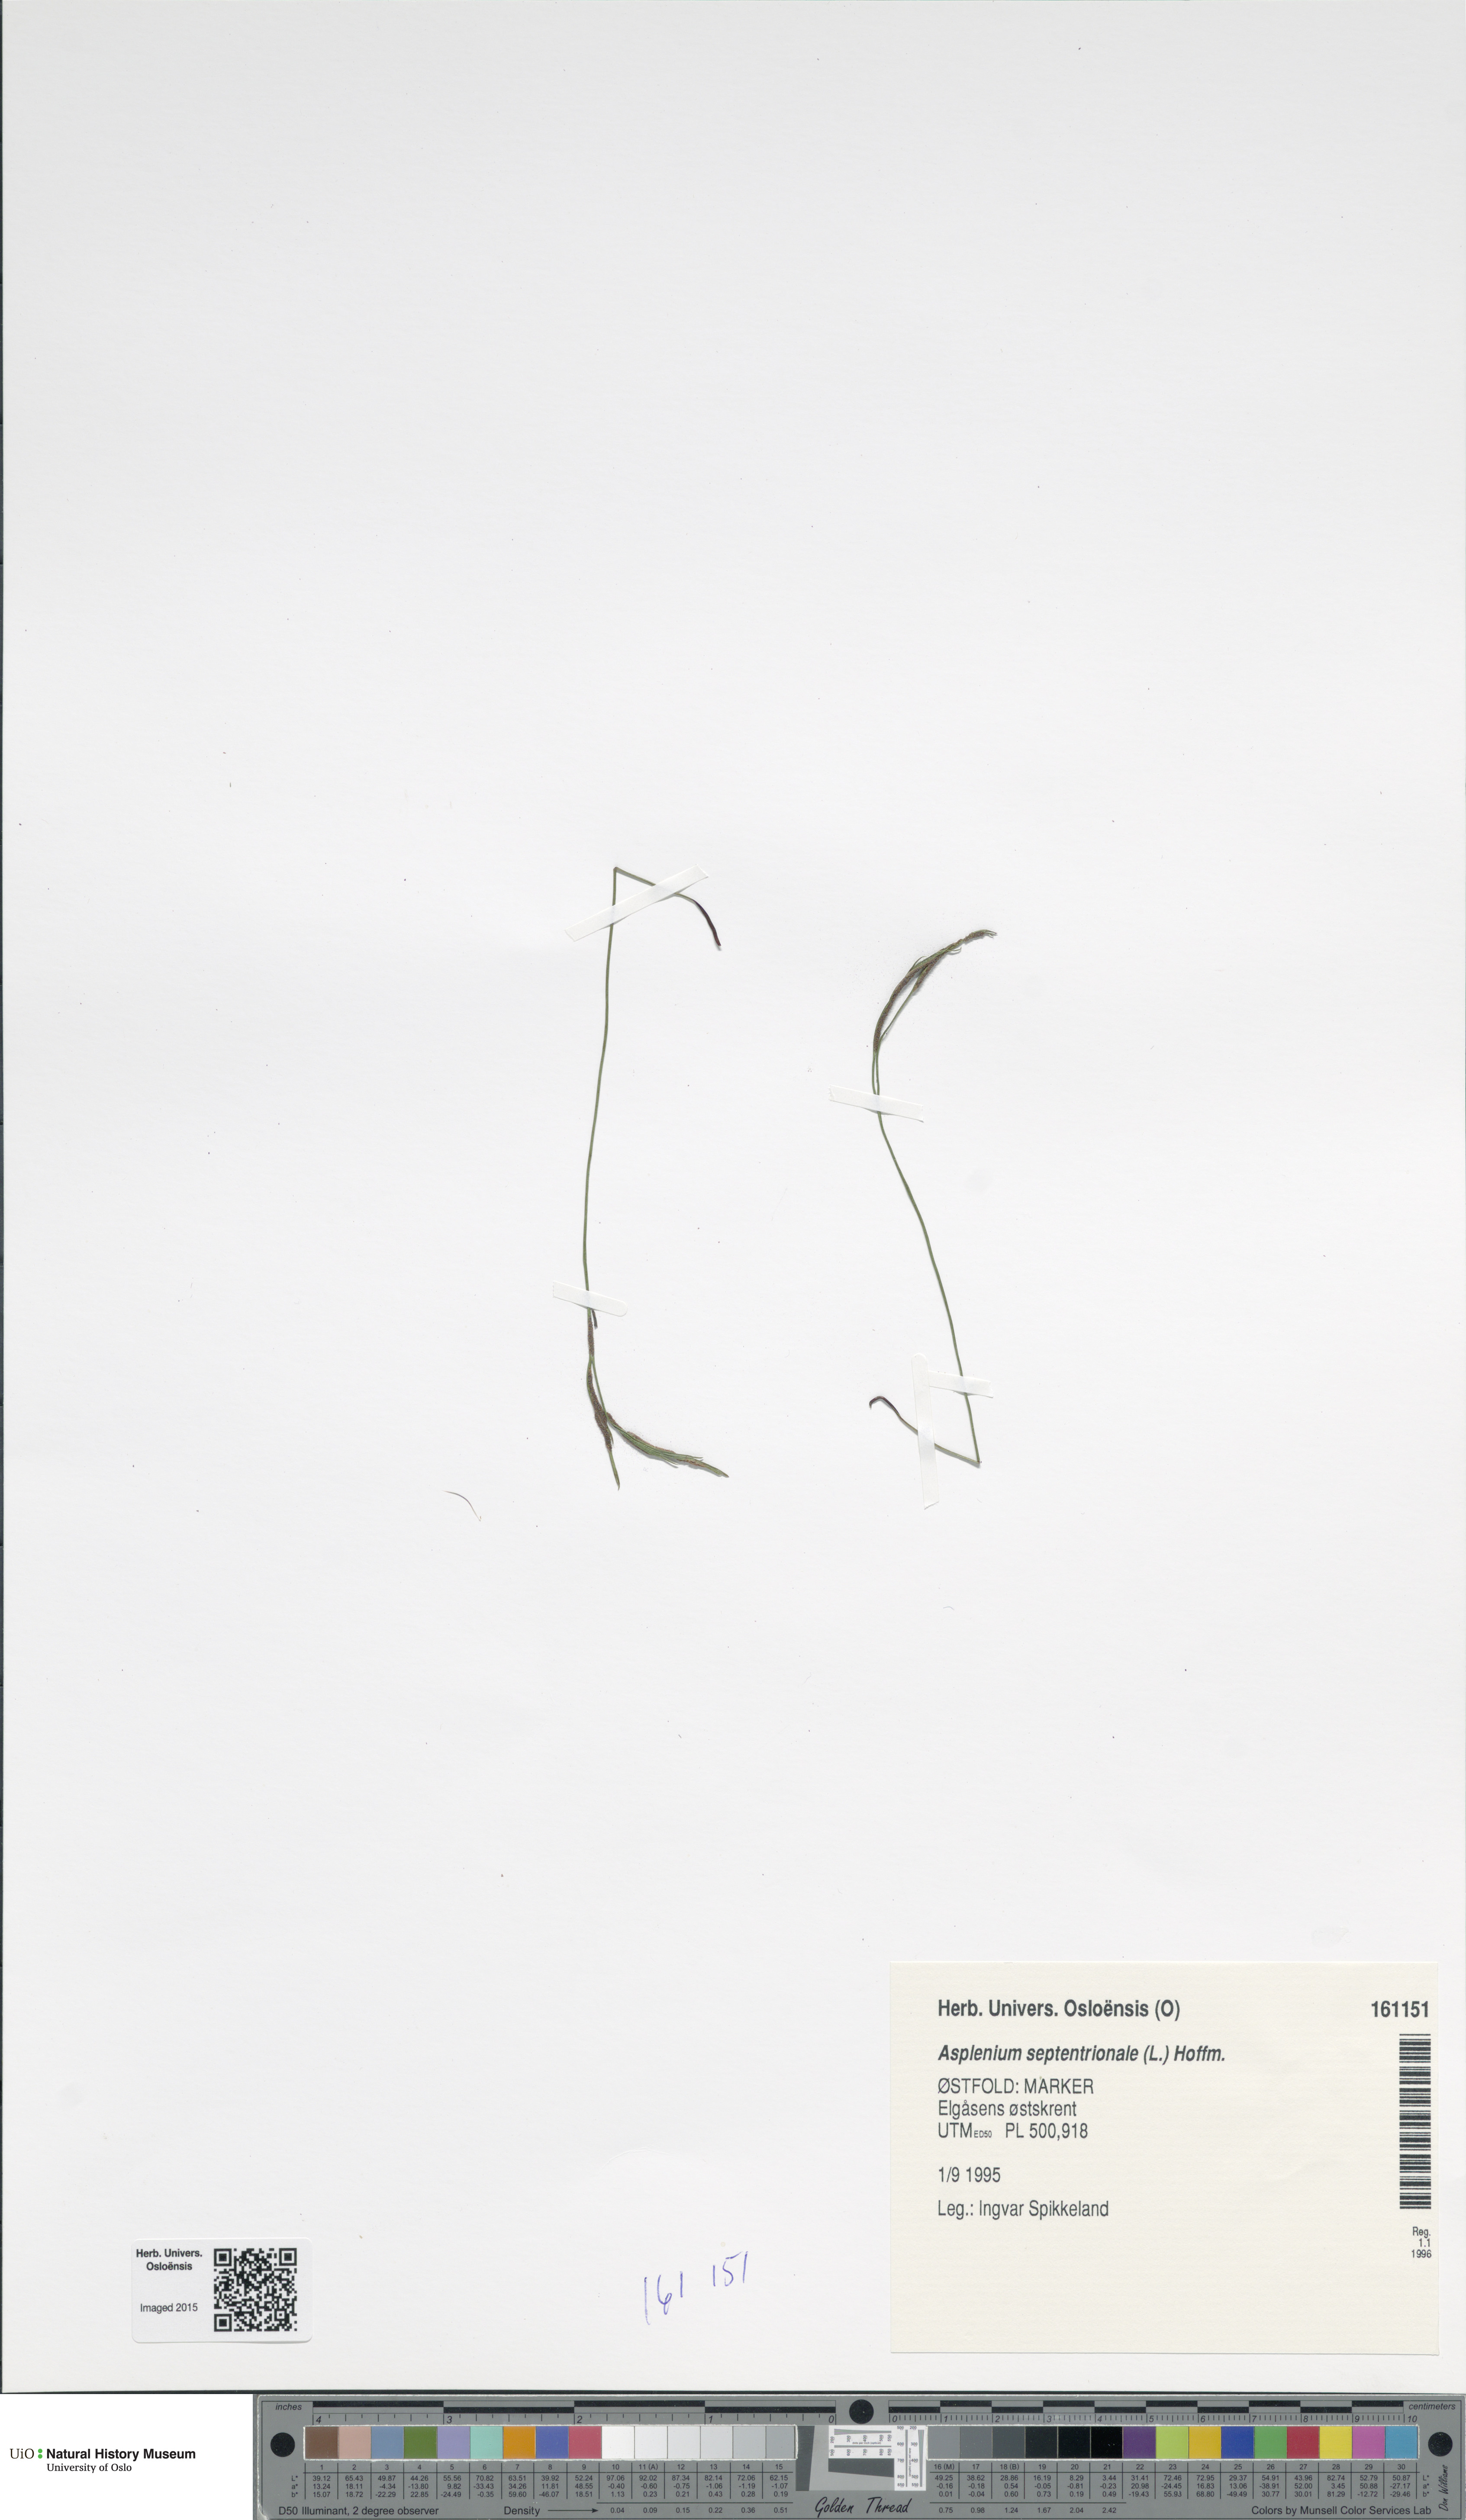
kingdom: Plantae
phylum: Tracheophyta
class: Polypodiopsida
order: Polypodiales
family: Aspleniaceae
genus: Asplenium
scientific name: Asplenium septentrionale
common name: Forked spleenwort
